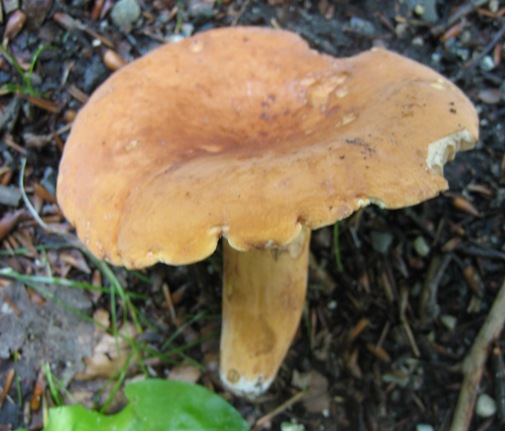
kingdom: Fungi
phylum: Basidiomycota
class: Agaricomycetes
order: Russulales
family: Russulaceae
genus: Lactifluus
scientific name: Lactifluus volemus
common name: spiselig mælkehat
